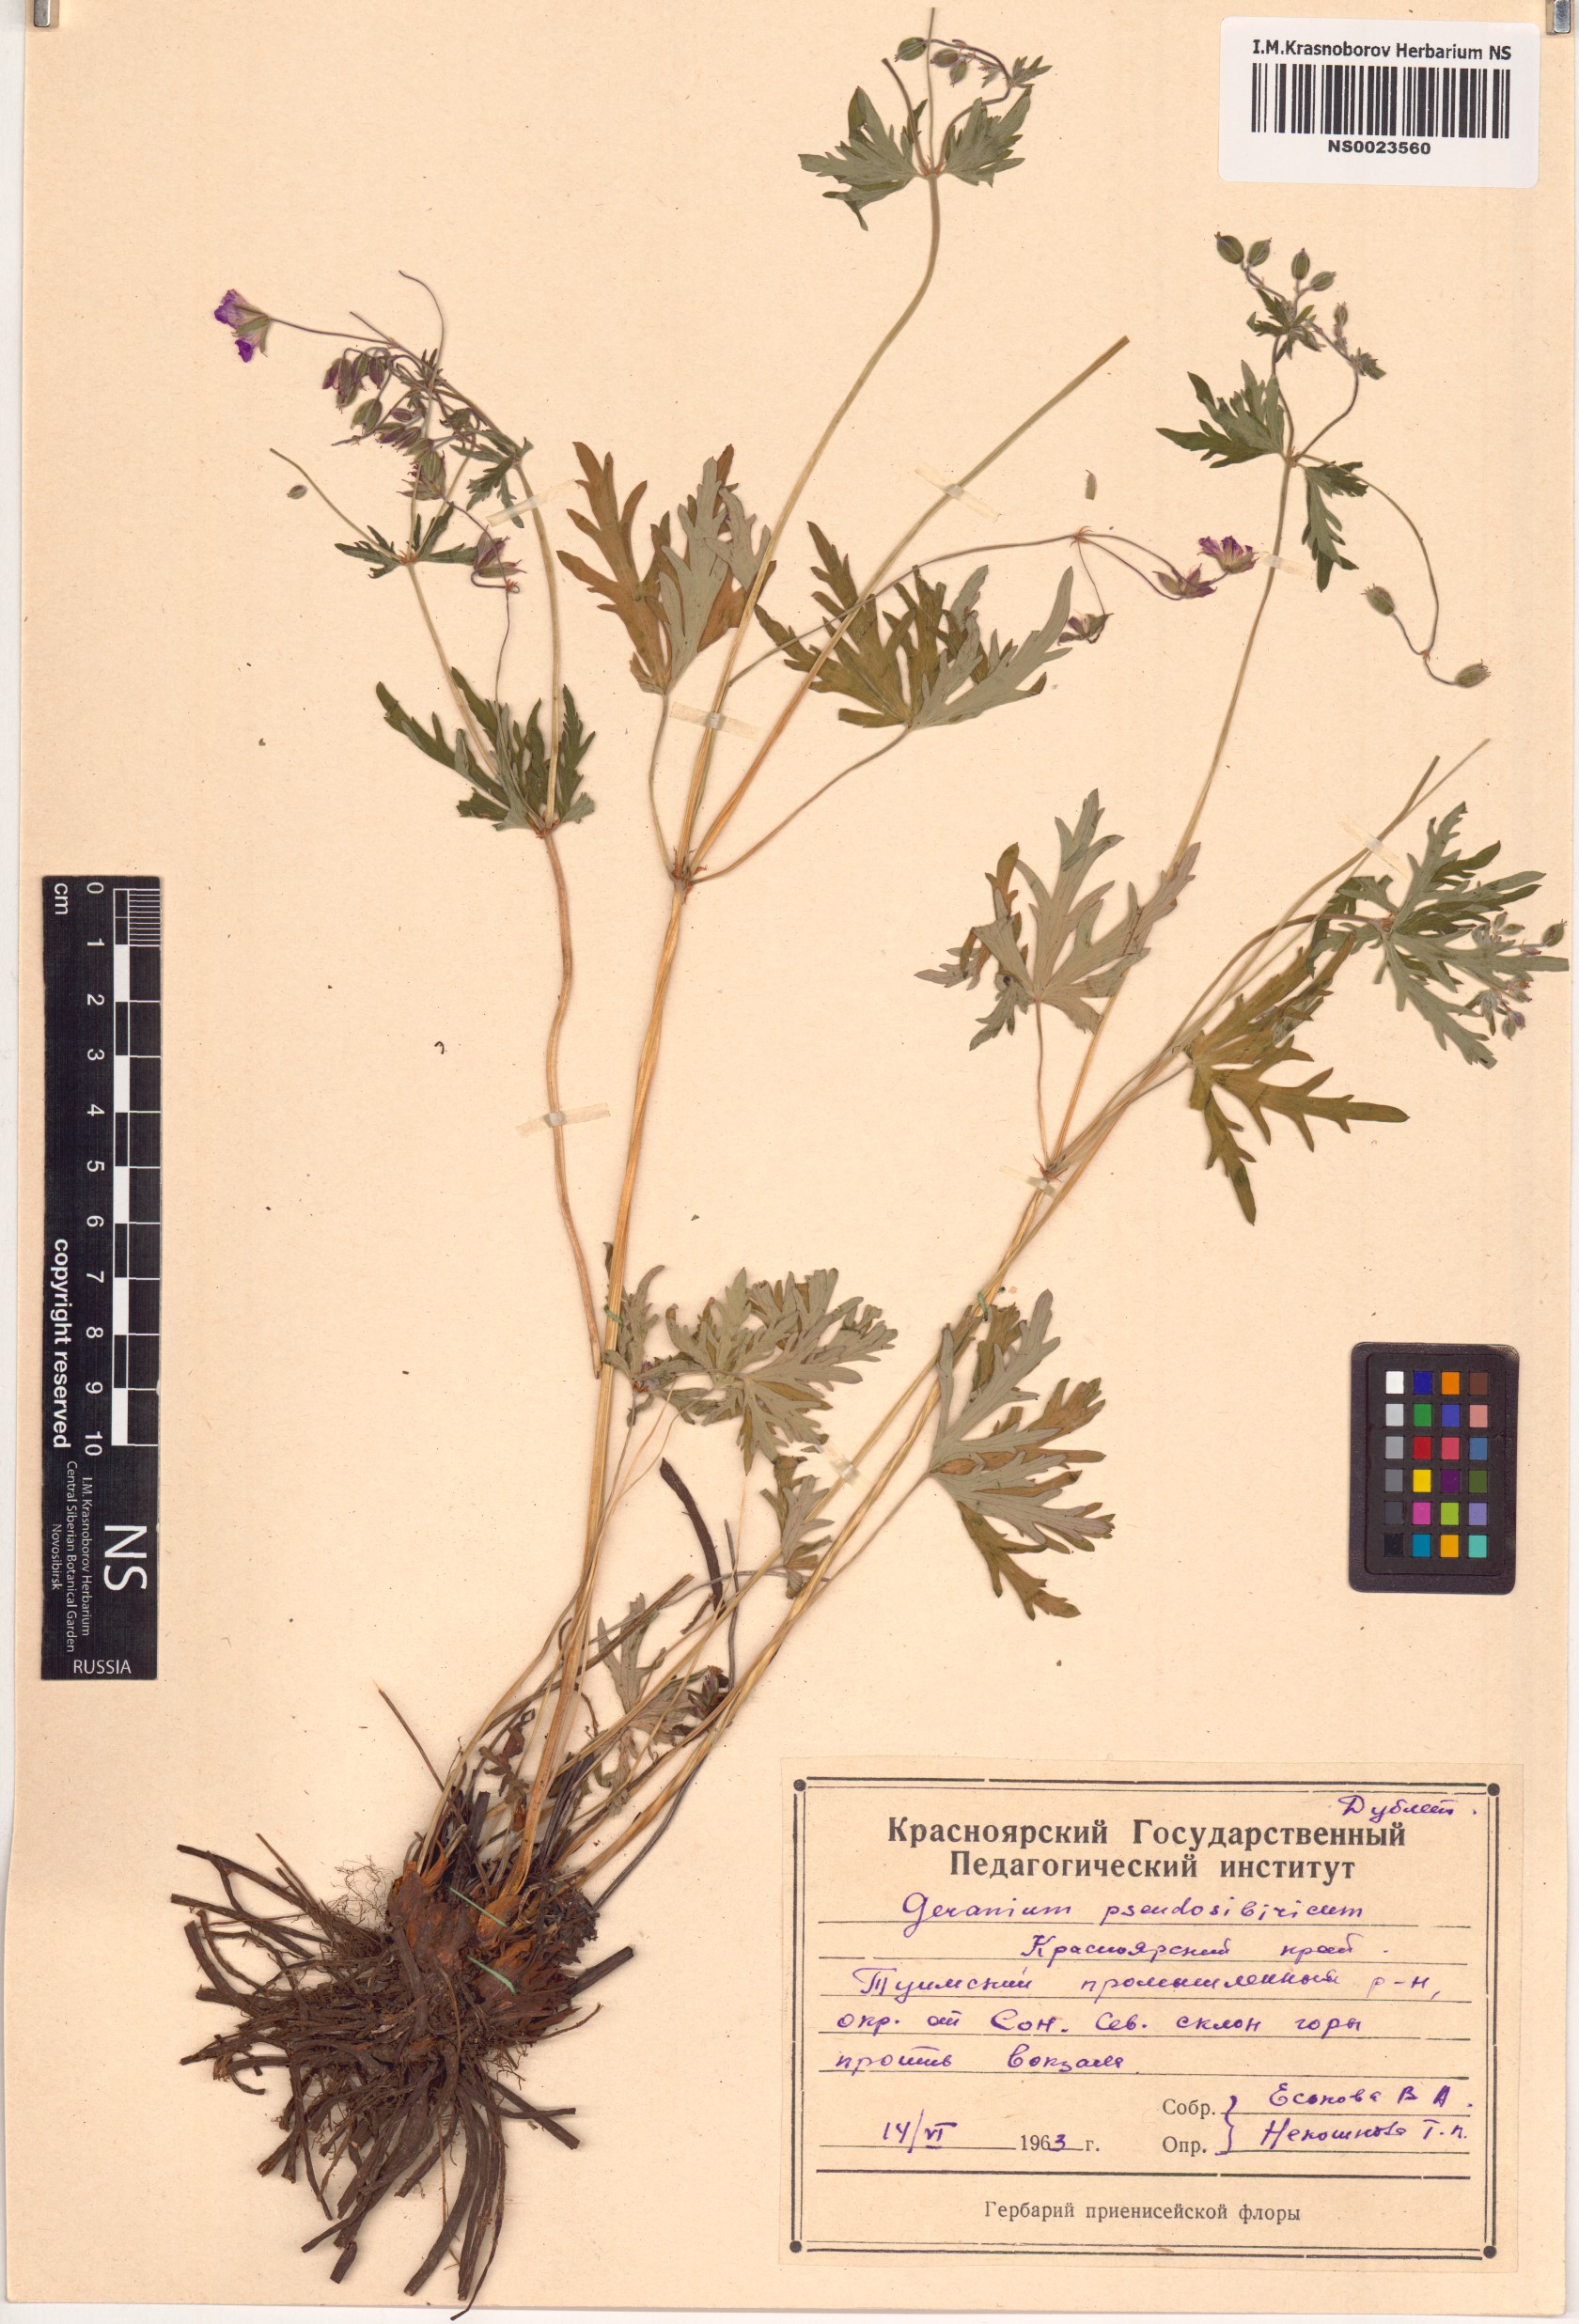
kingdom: Plantae
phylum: Tracheophyta
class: Magnoliopsida
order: Geraniales
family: Geraniaceae
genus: Geranium
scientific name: Geranium pseudosibiricum
